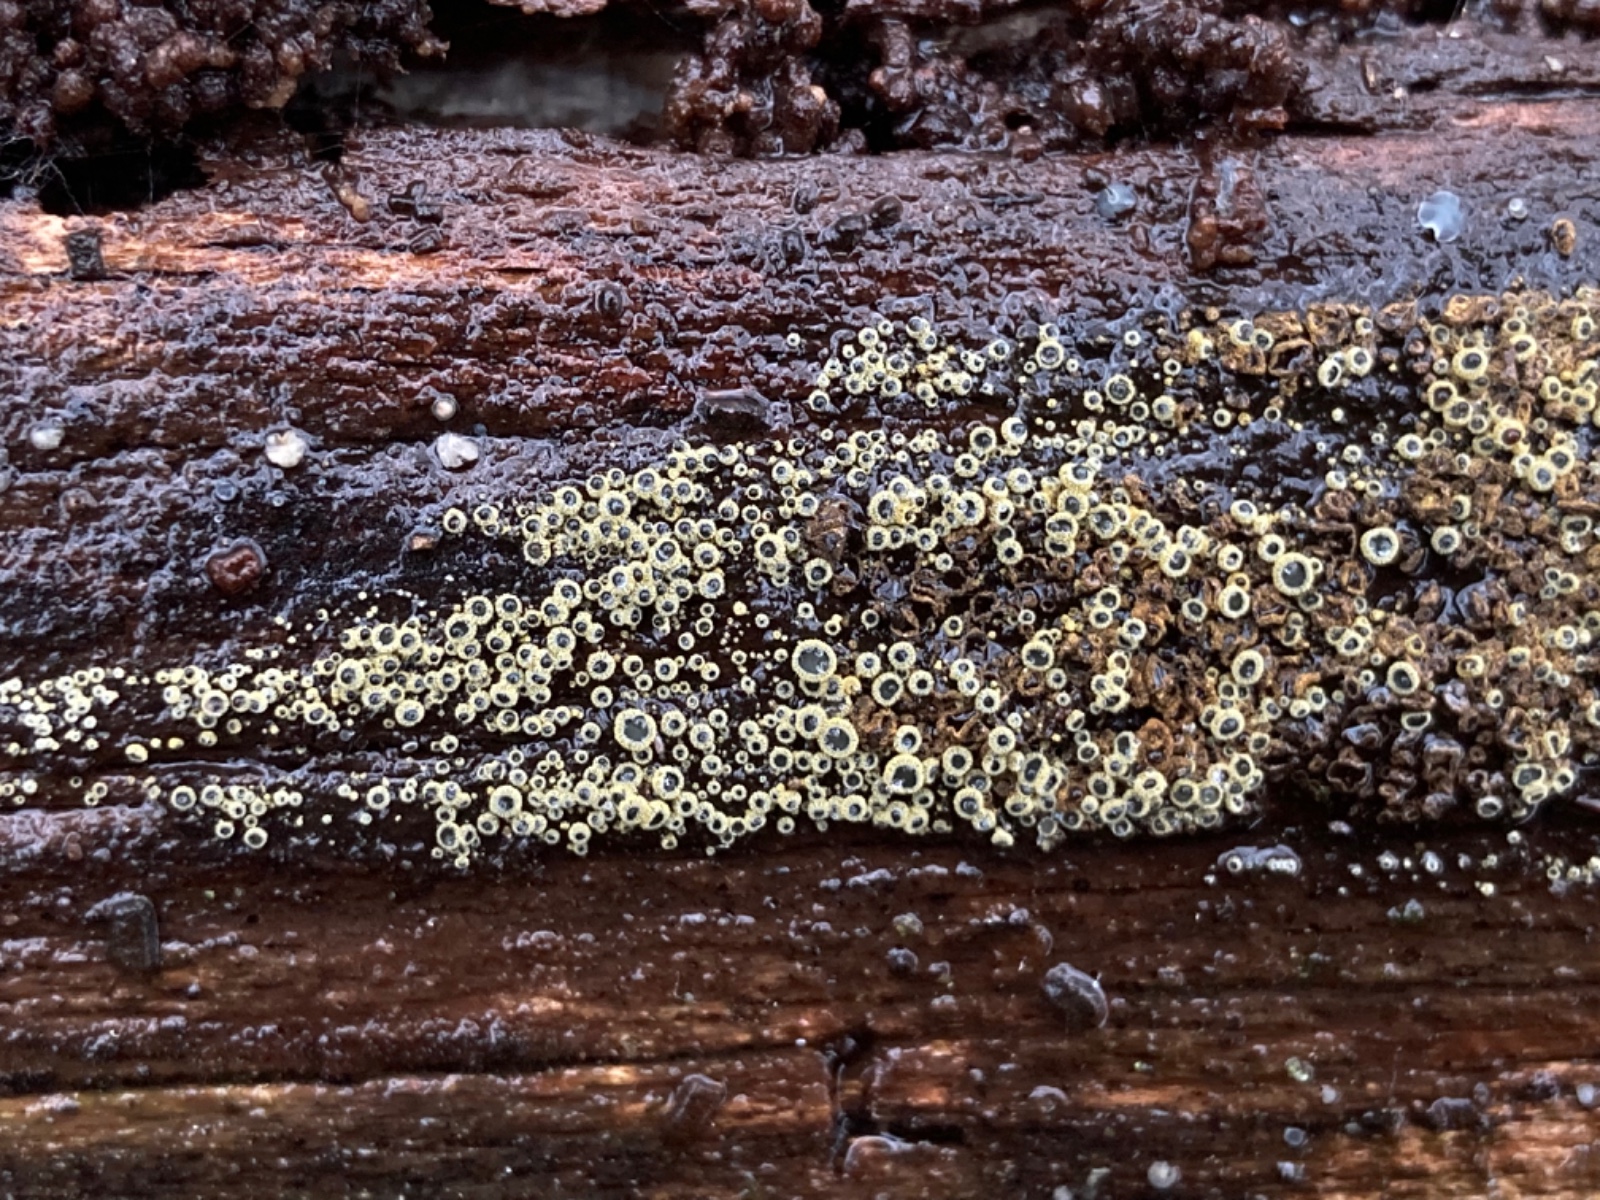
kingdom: Fungi
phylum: Ascomycota
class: Leotiomycetes
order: Helotiales
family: Lachnaceae
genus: Neodasyscypha
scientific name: Neodasyscypha cerina
